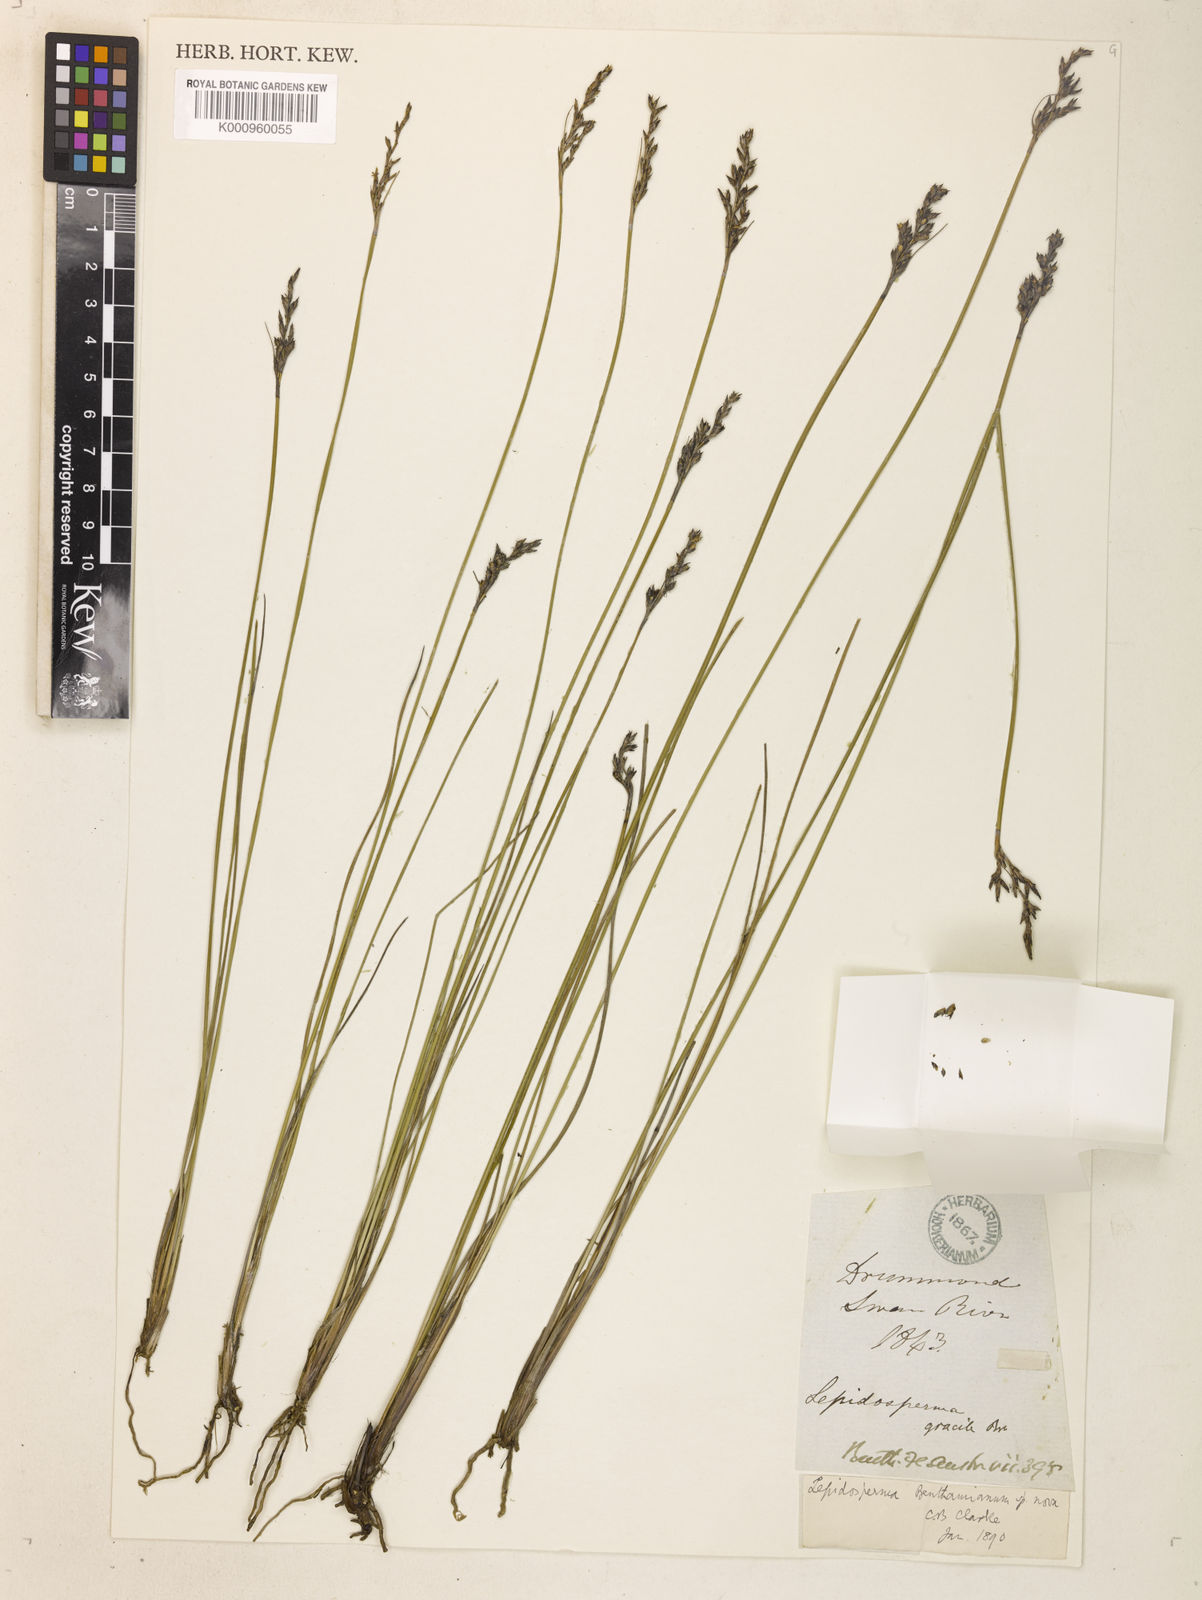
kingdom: Plantae
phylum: Tracheophyta
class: Liliopsida
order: Poales
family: Cyperaceae
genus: Lepidosperma
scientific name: Lepidosperma benthamianum
